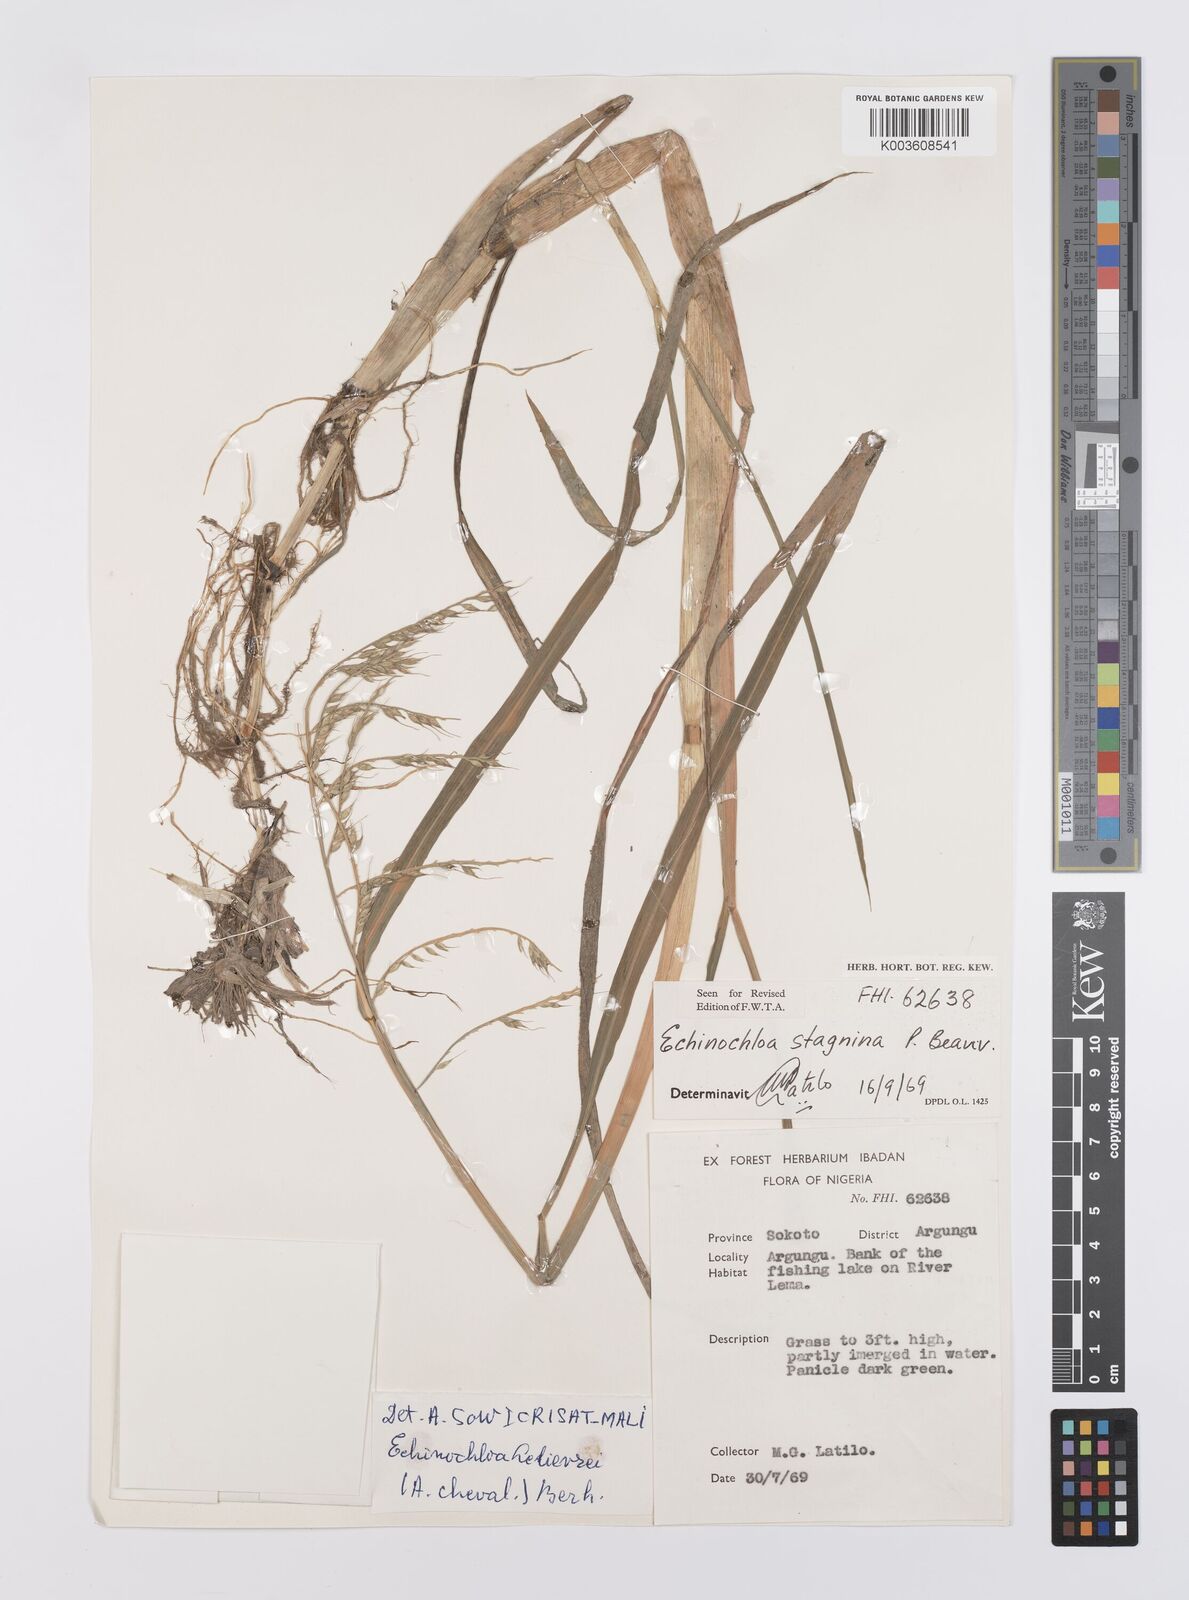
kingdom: Plantae
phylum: Tracheophyta
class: Liliopsida
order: Poales
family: Poaceae
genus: Echinochloa
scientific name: Echinochloa stagnina
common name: Burgu grass
